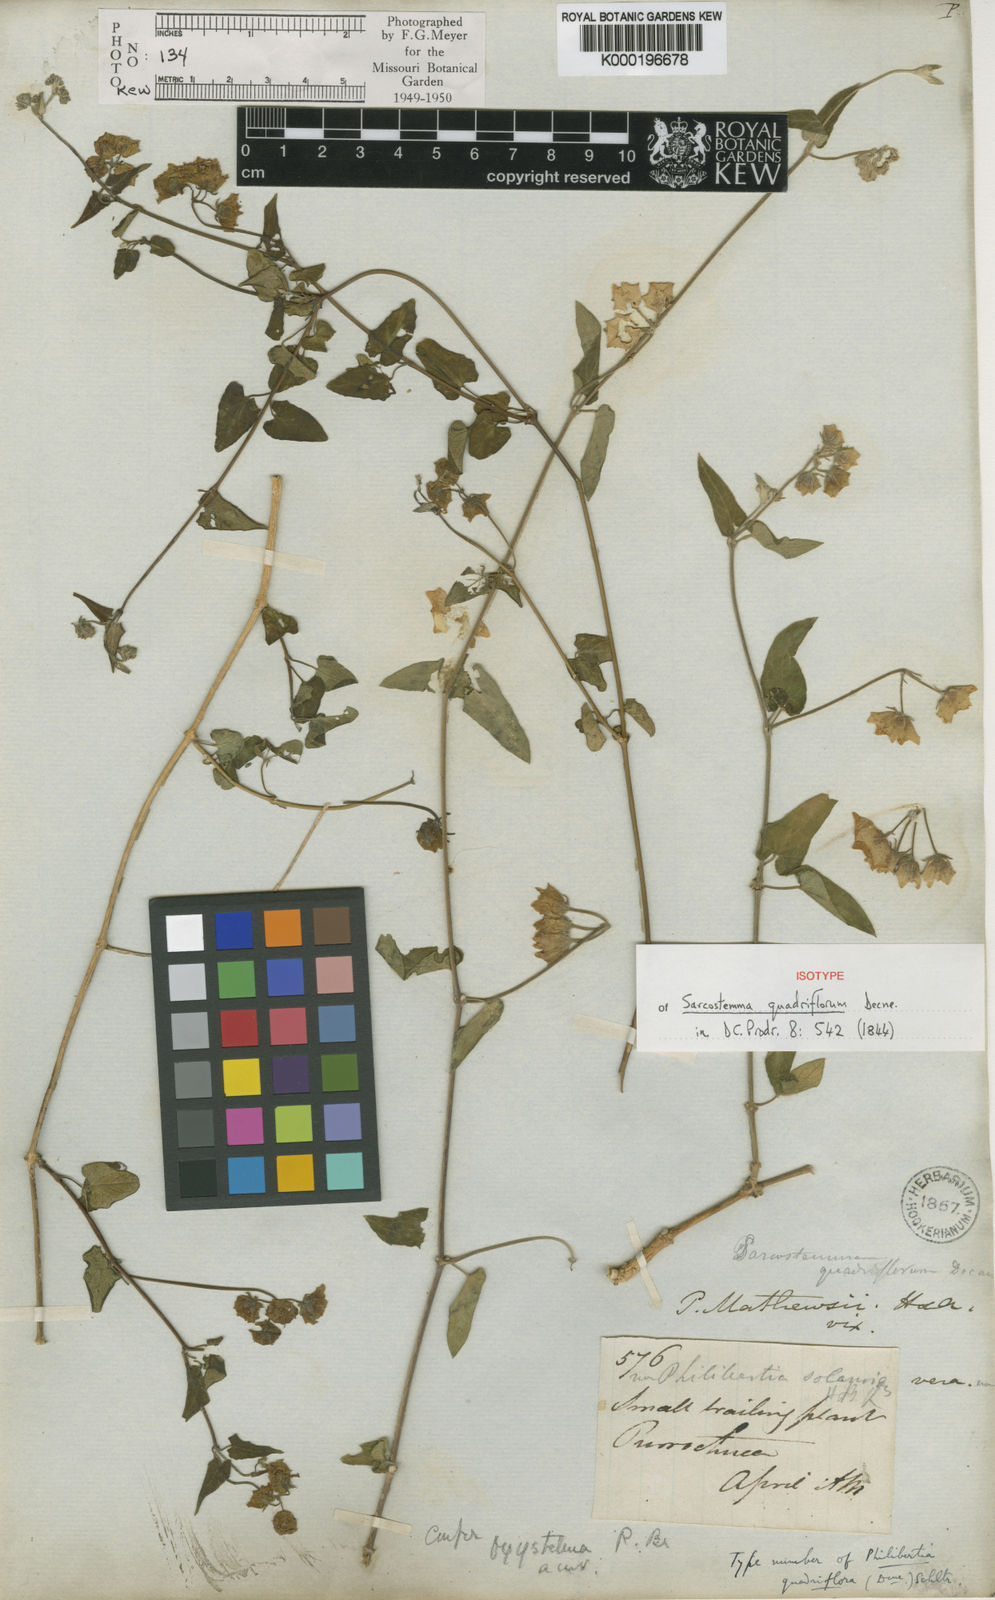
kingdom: Plantae
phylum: Tracheophyta
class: Magnoliopsida
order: Gentianales
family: Apocynaceae
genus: Philibertia
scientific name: Philibertia solanoides
